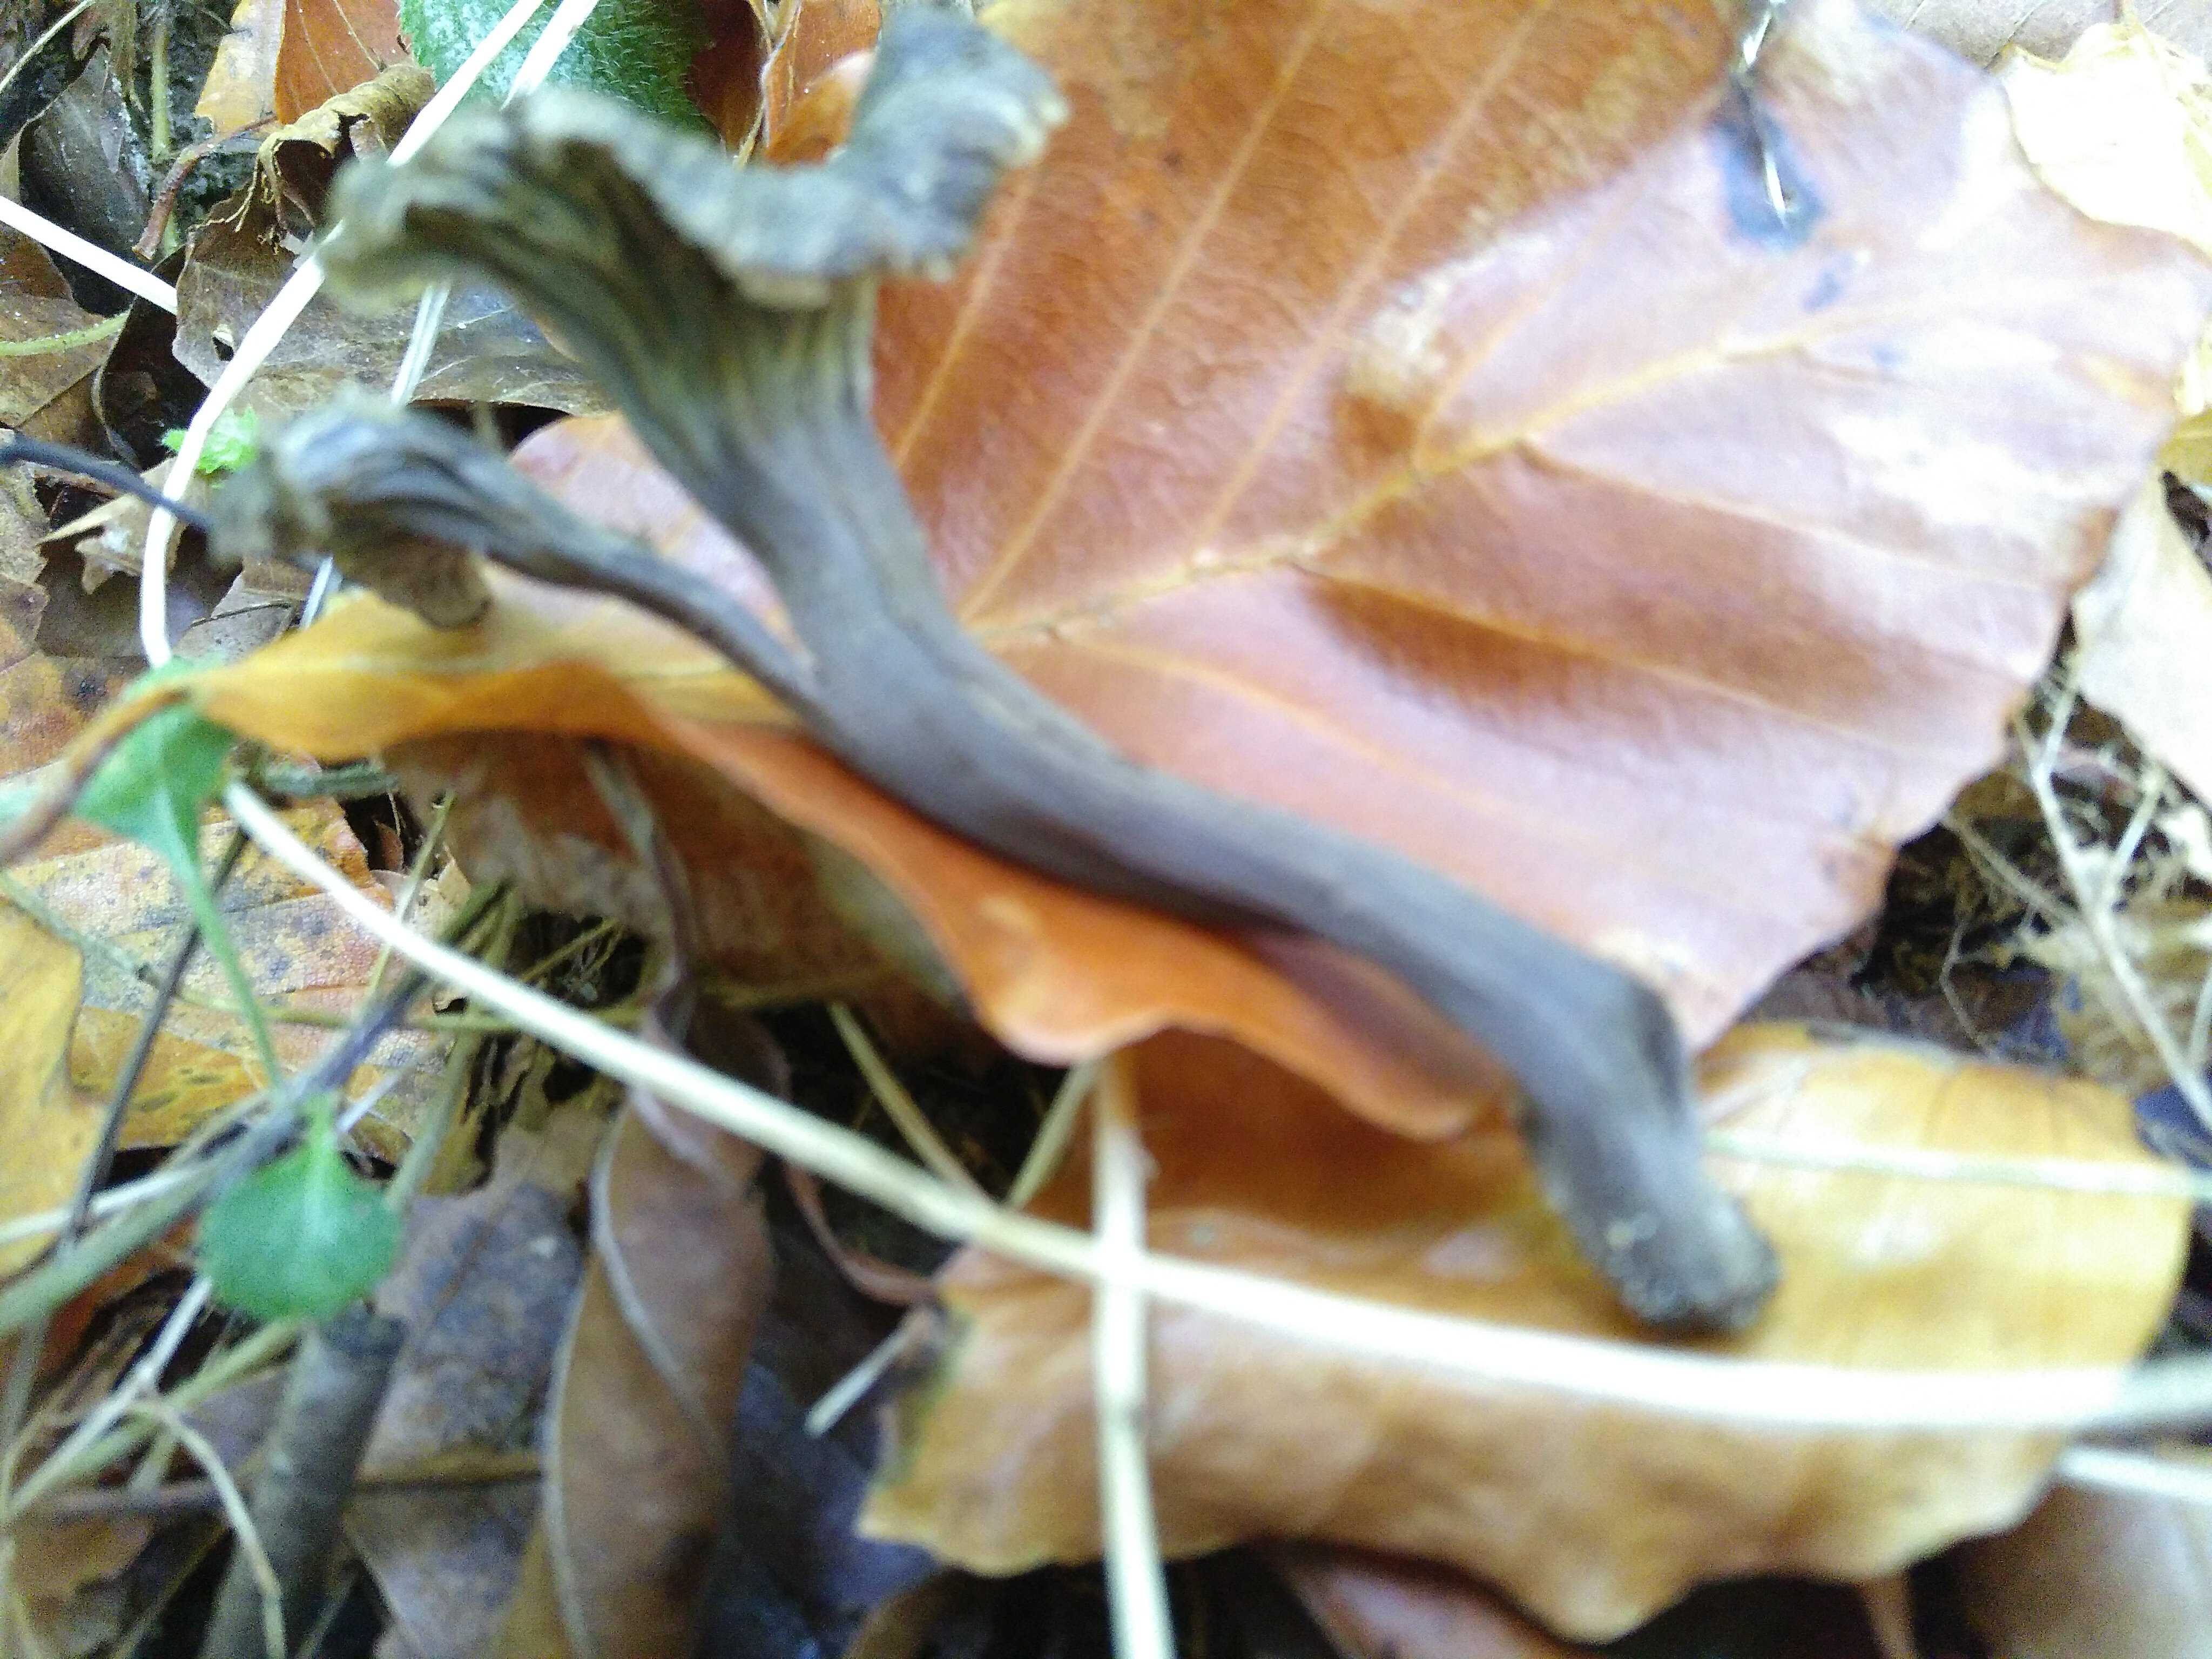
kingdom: Fungi
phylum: Basidiomycota
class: Agaricomycetes
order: Cantharellales
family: Hydnaceae
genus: Craterellus
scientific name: Craterellus cornucopioides
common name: trompetsvamp
